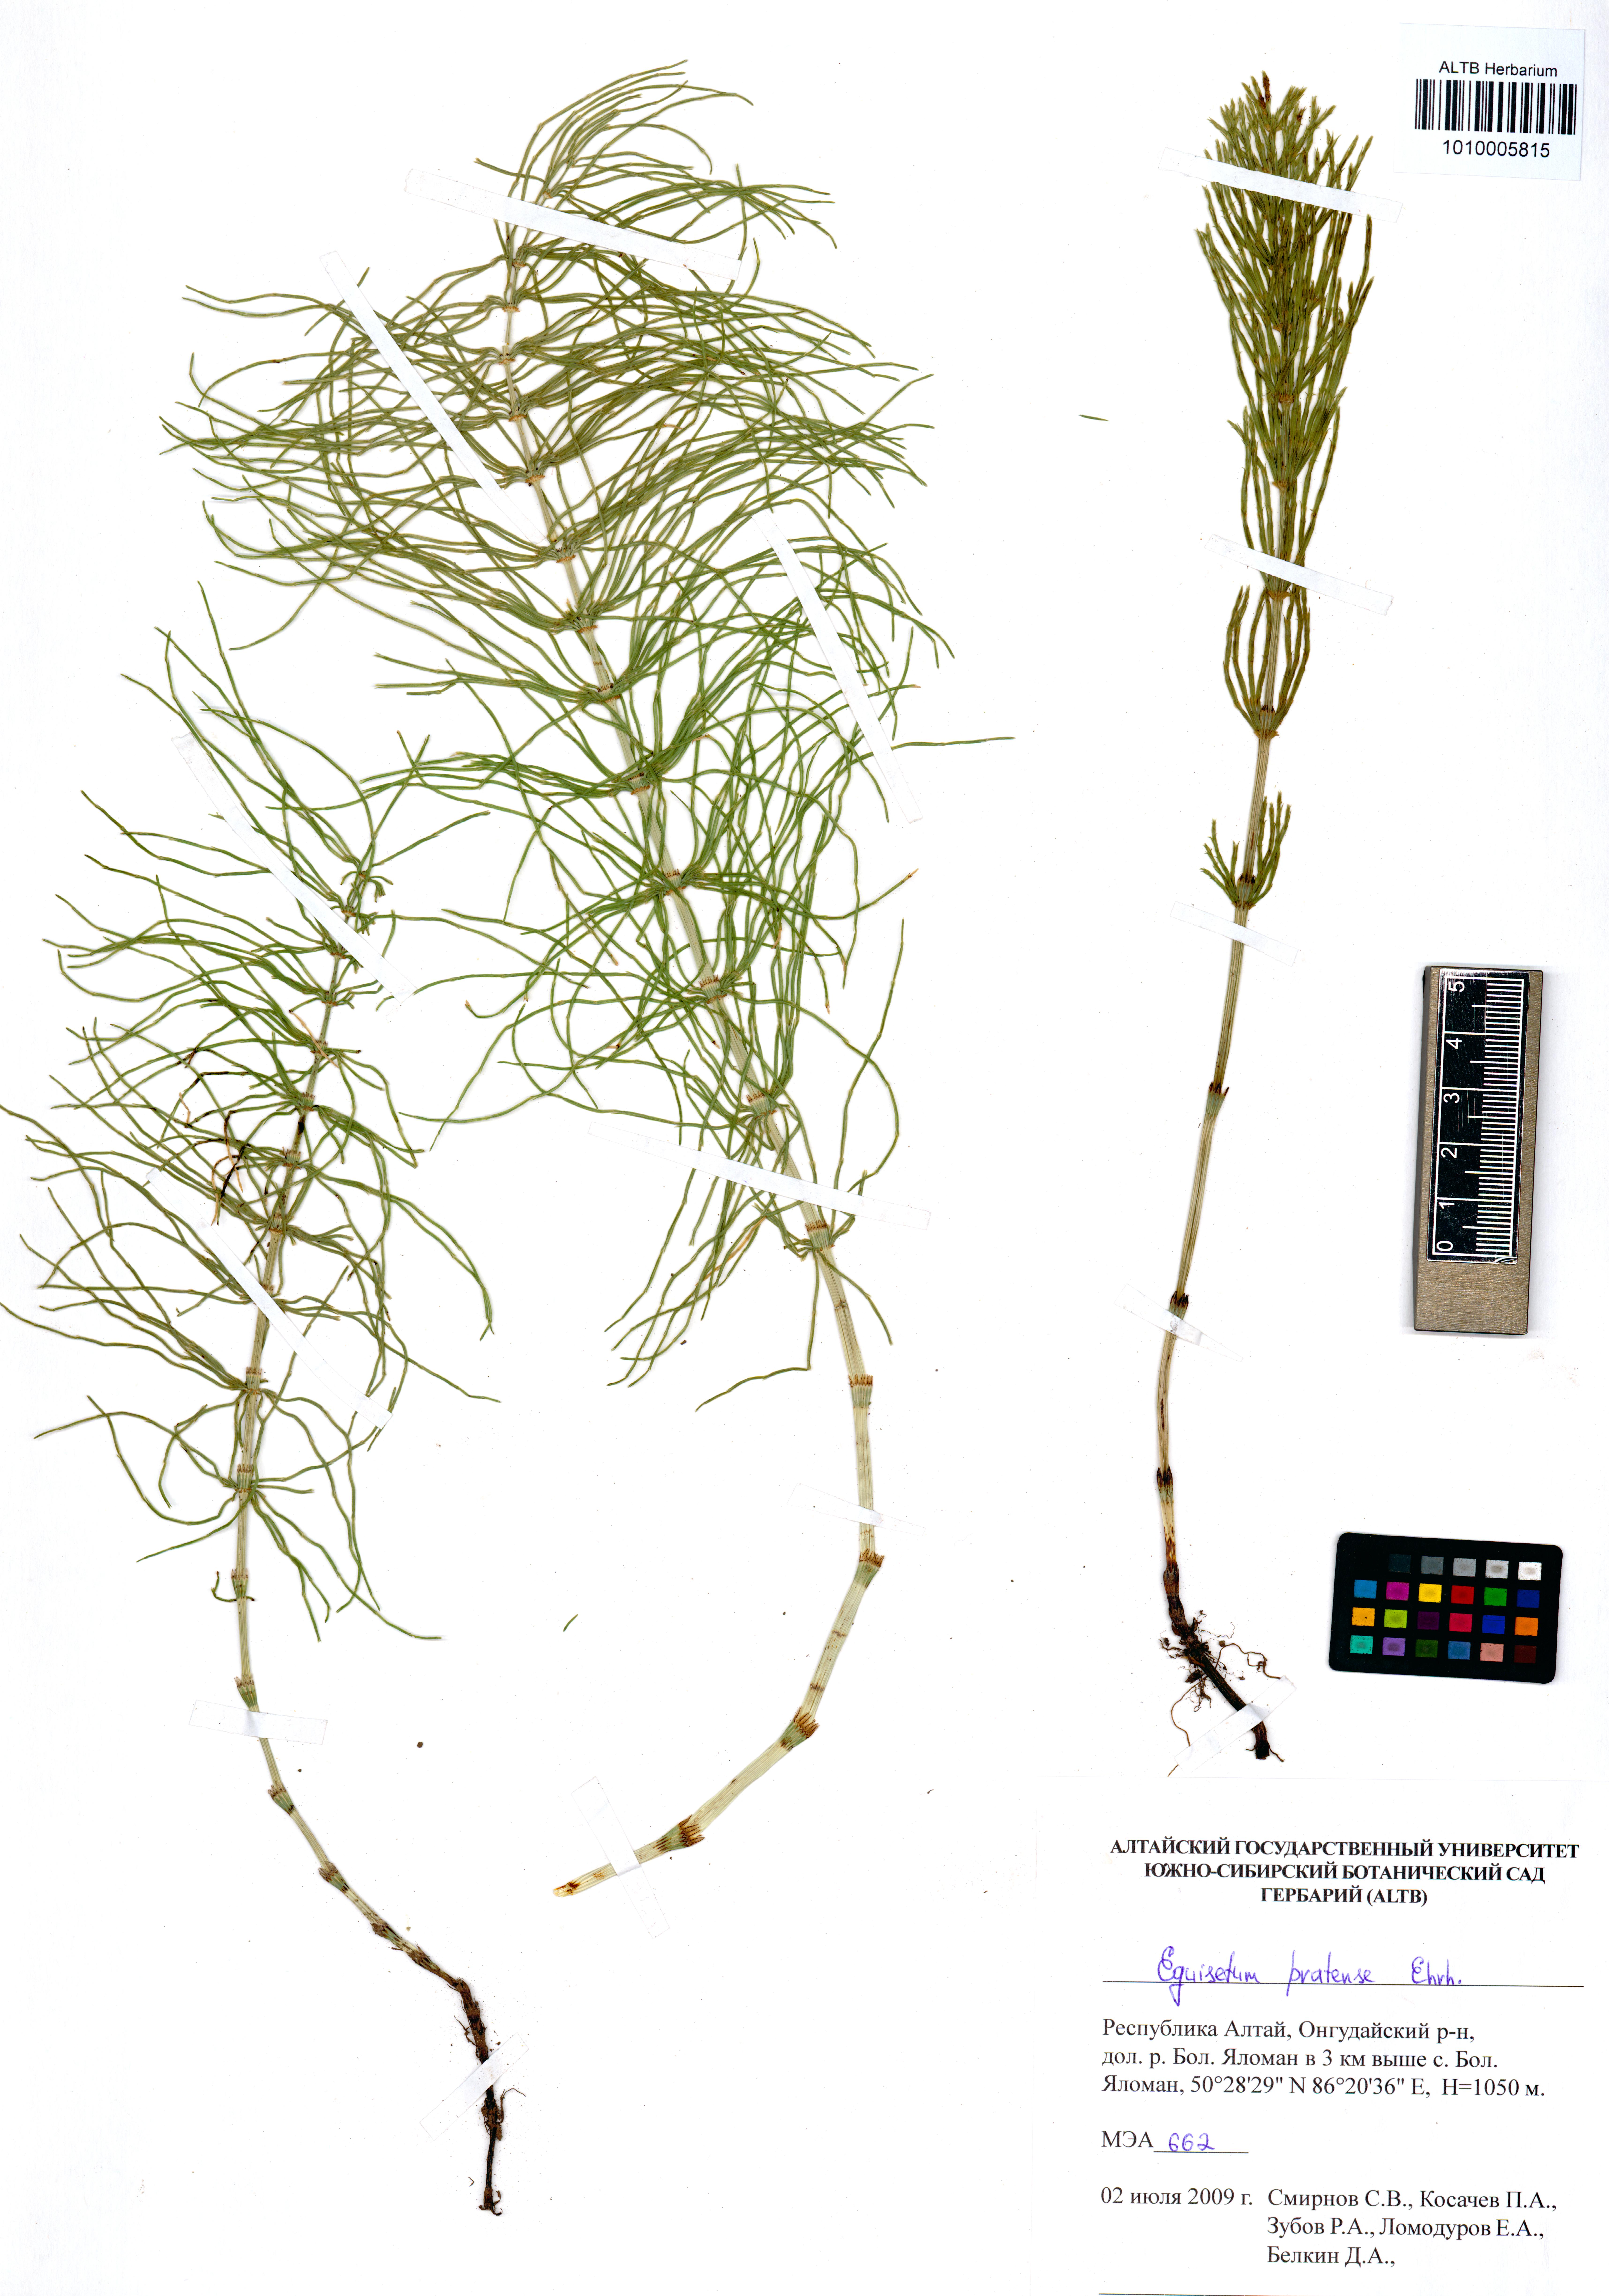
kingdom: Plantae
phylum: Tracheophyta
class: Polypodiopsida
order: Equisetales
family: Equisetaceae
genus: Equisetum
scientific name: Equisetum pratense
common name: Meadow horsetail
